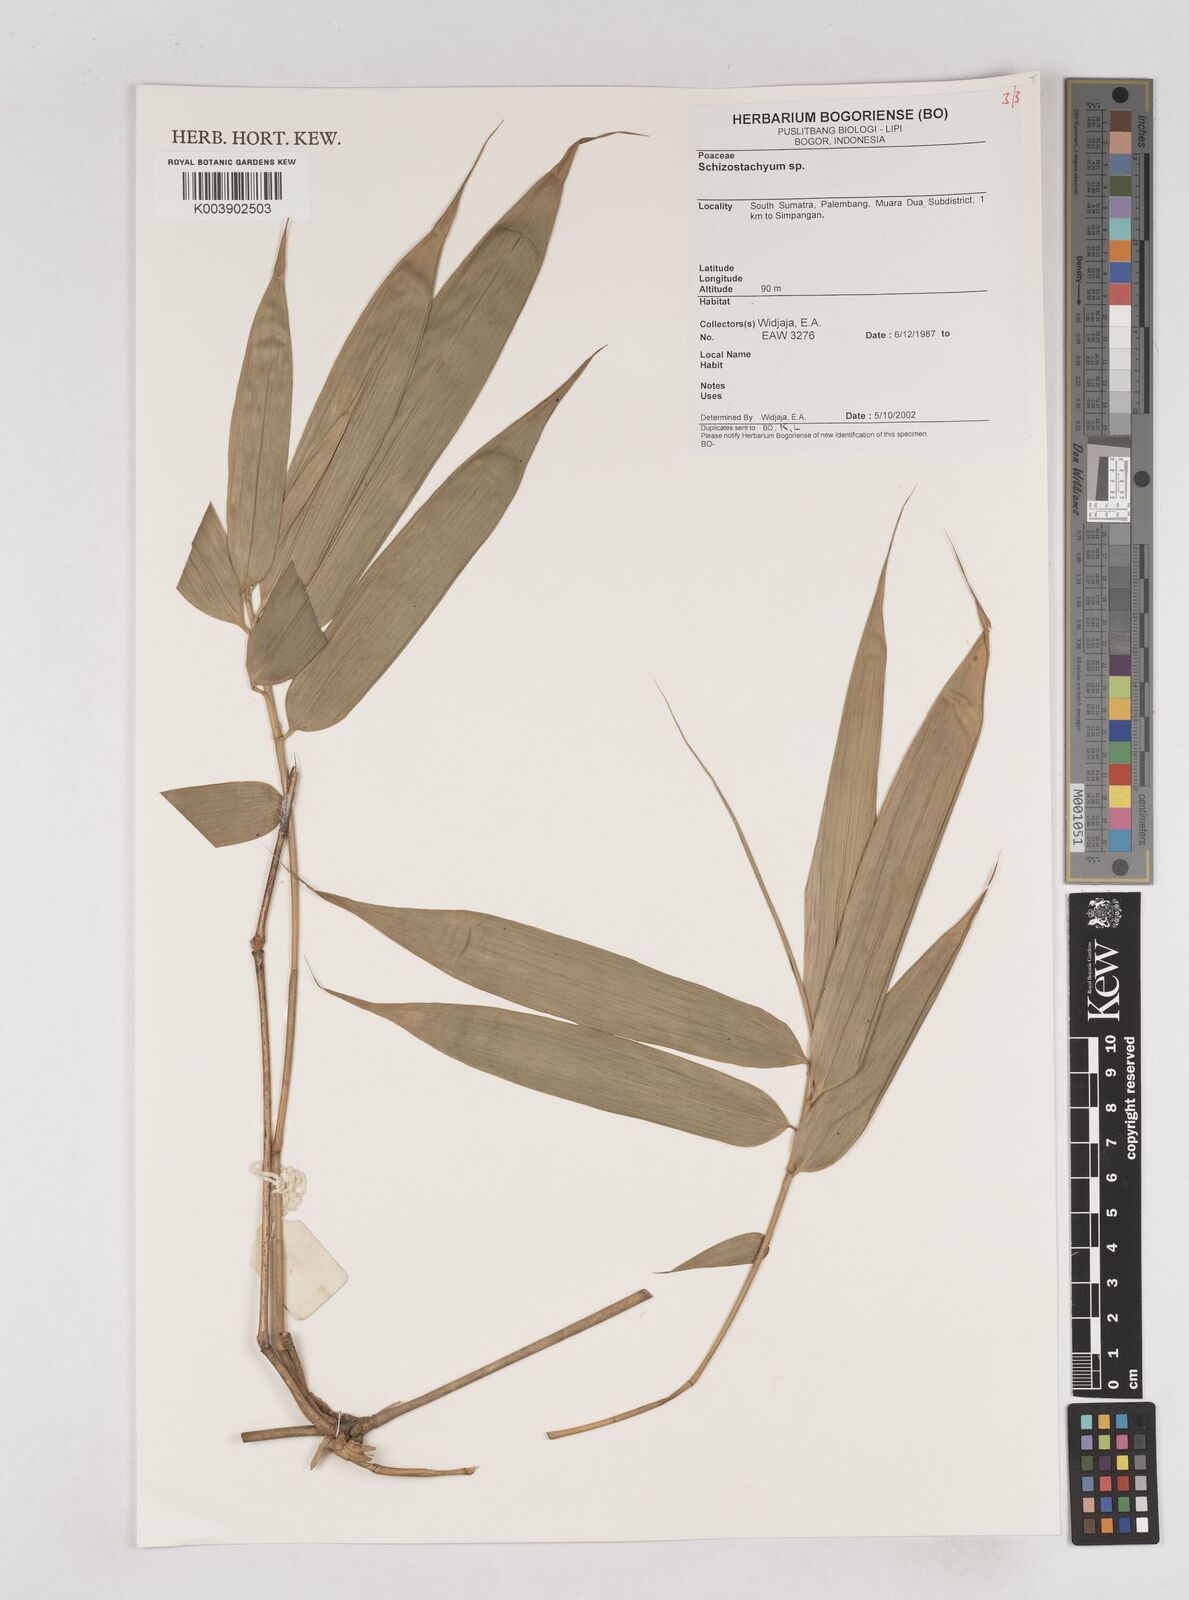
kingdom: Plantae
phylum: Tracheophyta
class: Liliopsida
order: Poales
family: Poaceae
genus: Schizostachyum
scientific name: Schizostachyum
